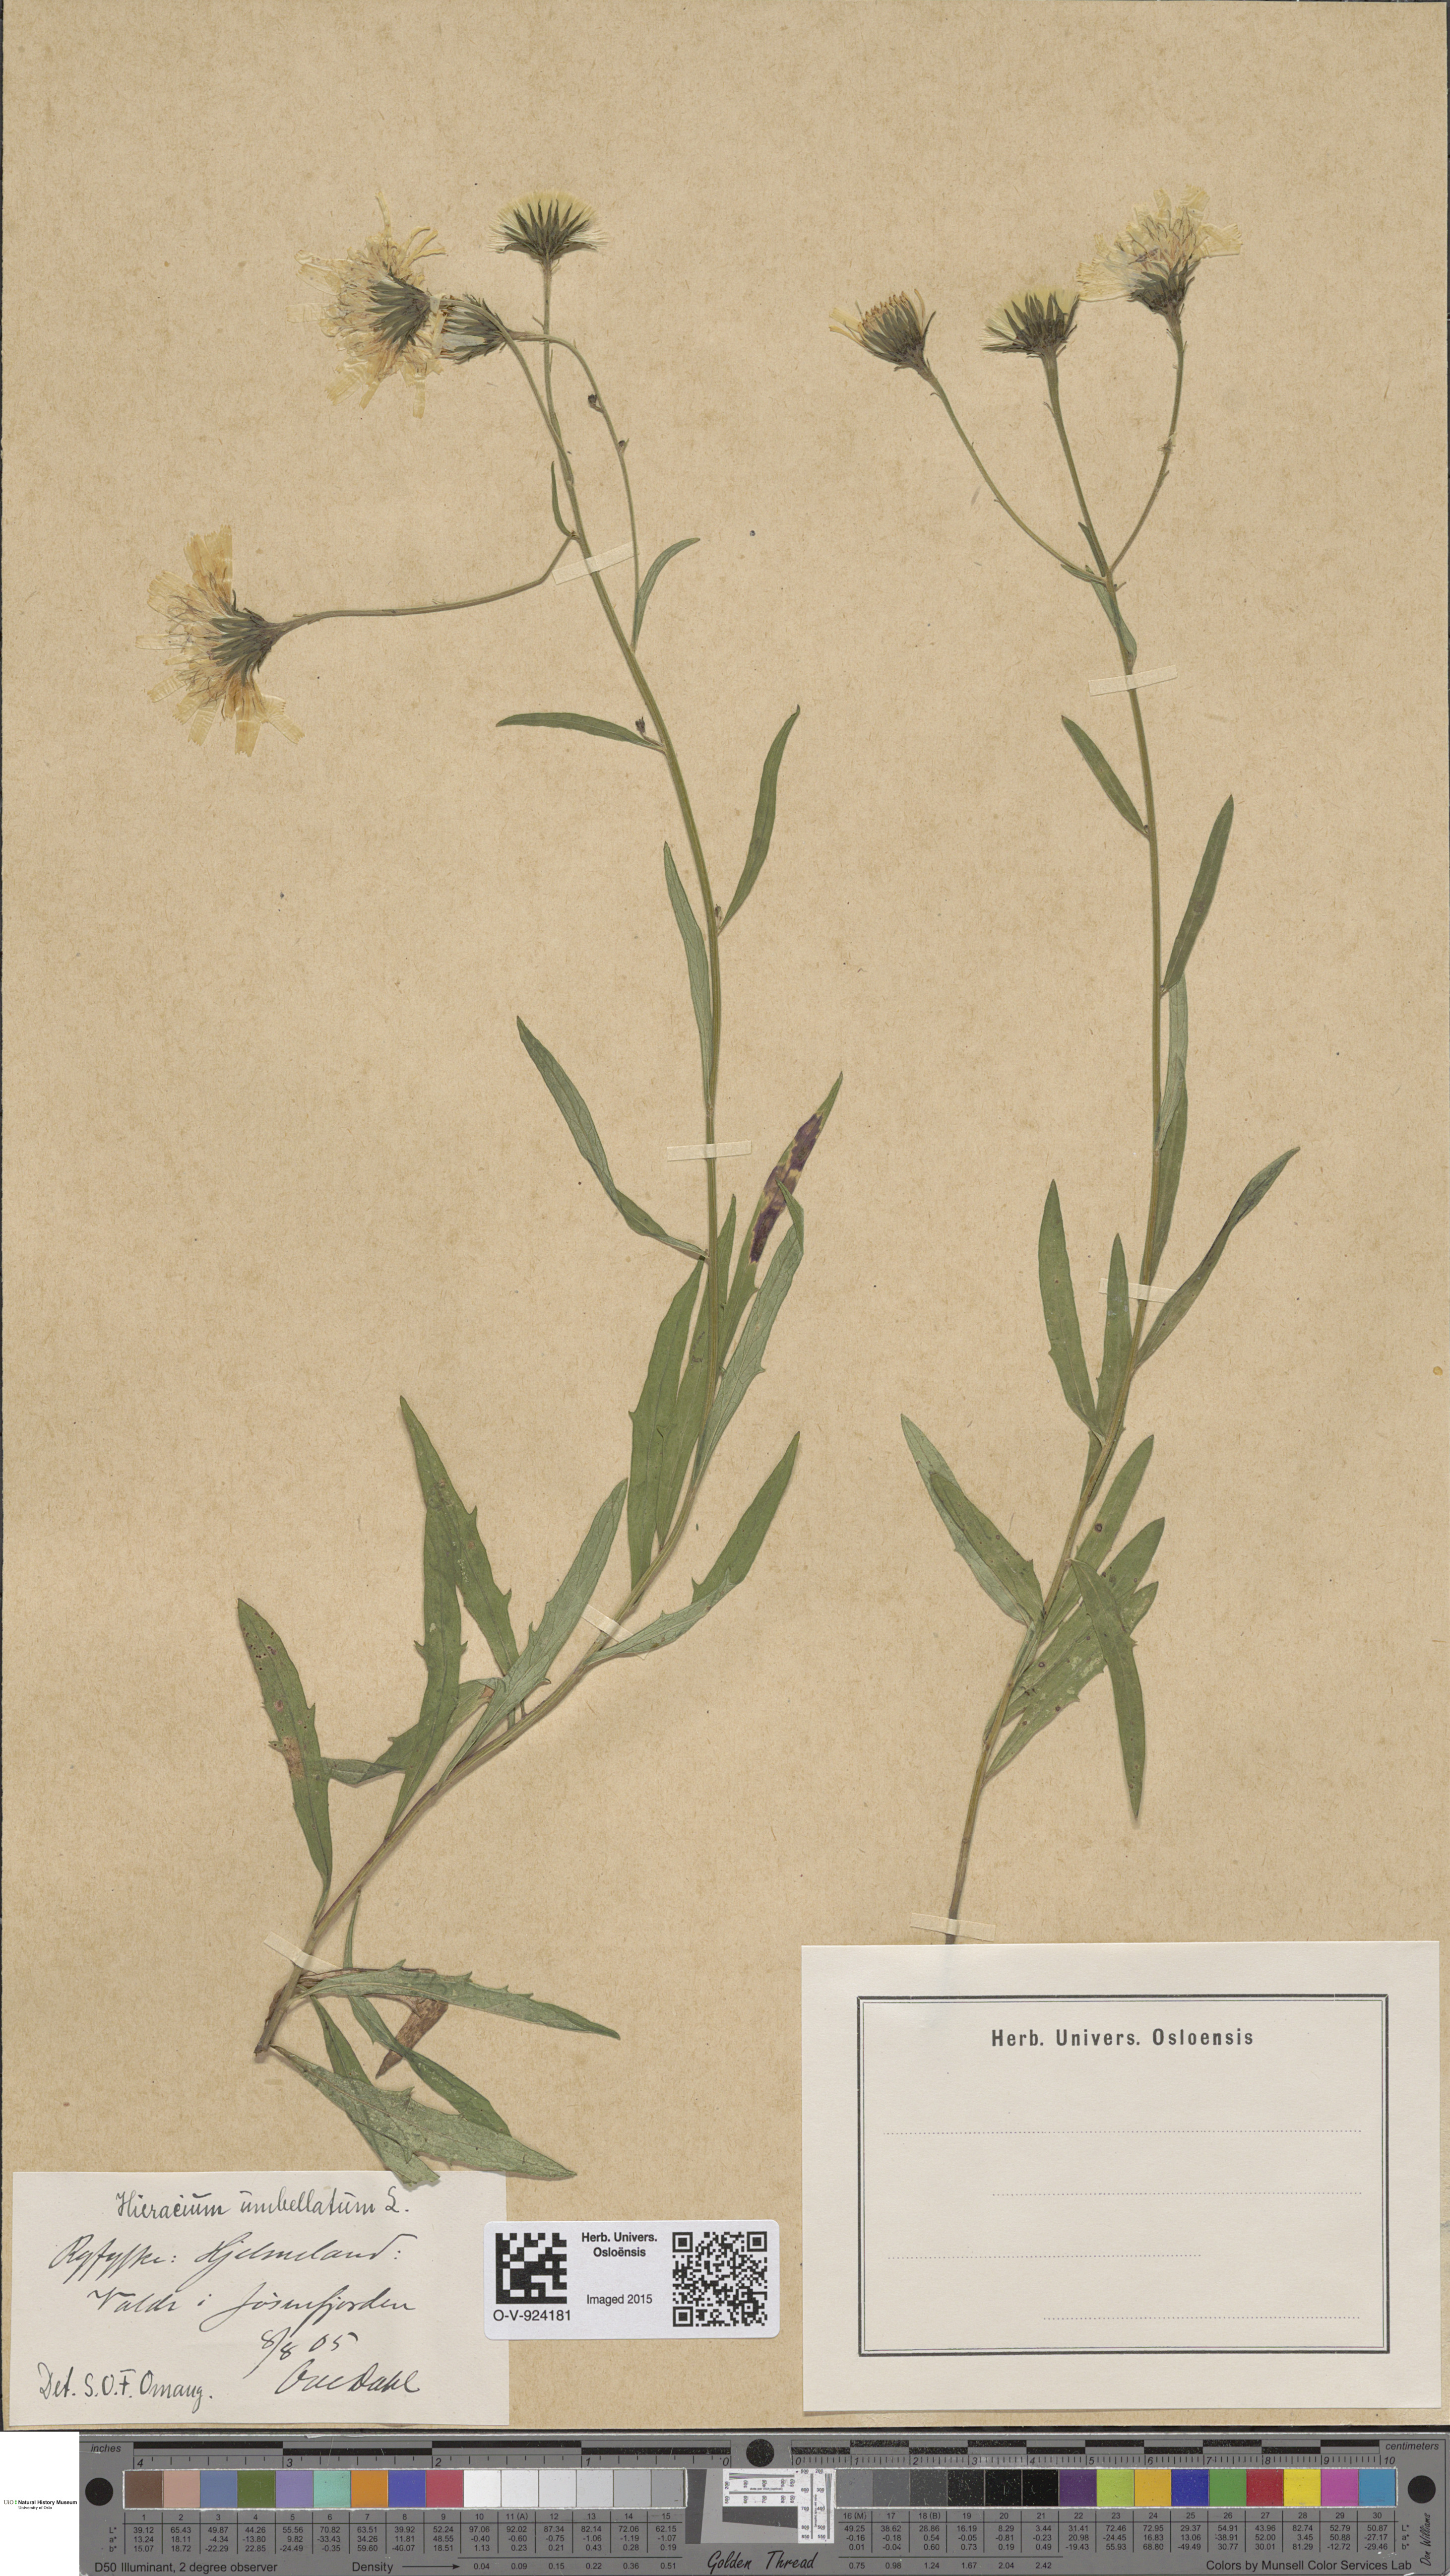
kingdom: Plantae
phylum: Tracheophyta
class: Magnoliopsida
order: Asterales
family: Asteraceae
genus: Hieracium
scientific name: Hieracium umbellatum
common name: Northern hawkweed
